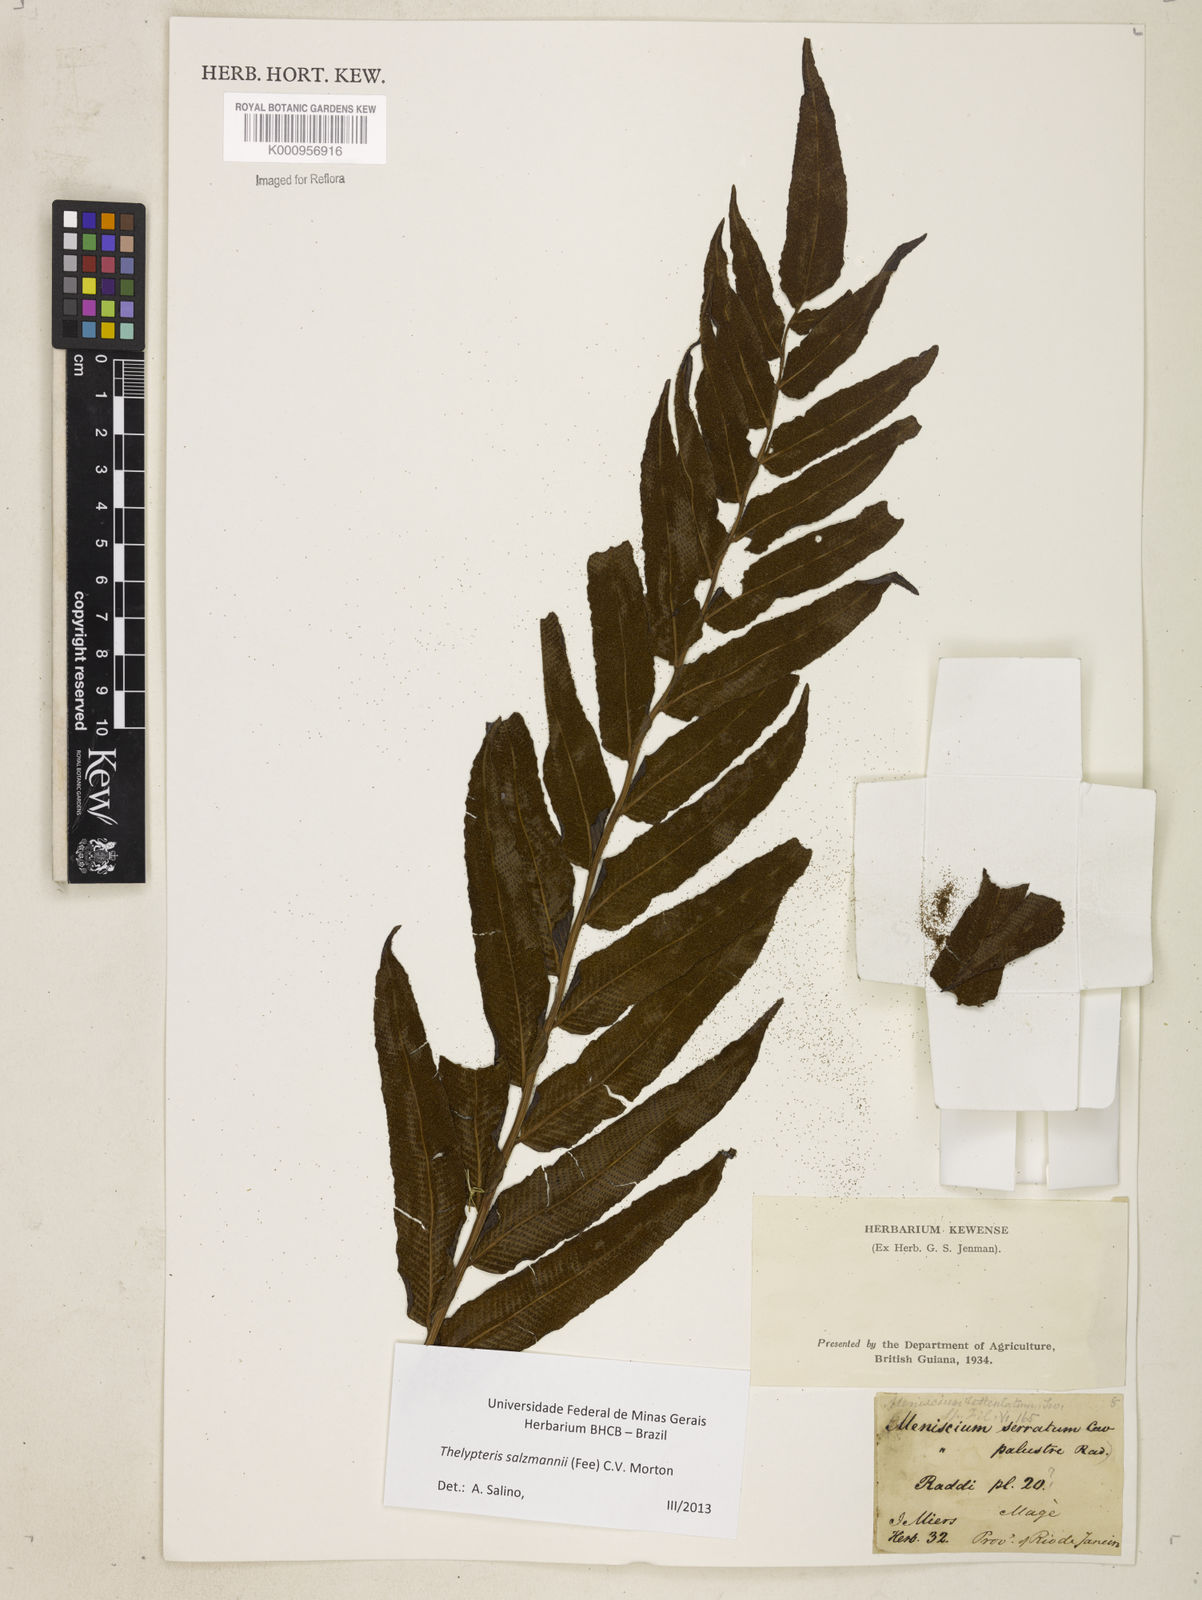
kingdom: Plantae
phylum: Tracheophyta
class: Polypodiopsida
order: Polypodiales
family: Thelypteridaceae
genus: Meniscium
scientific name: Meniscium arborescens
